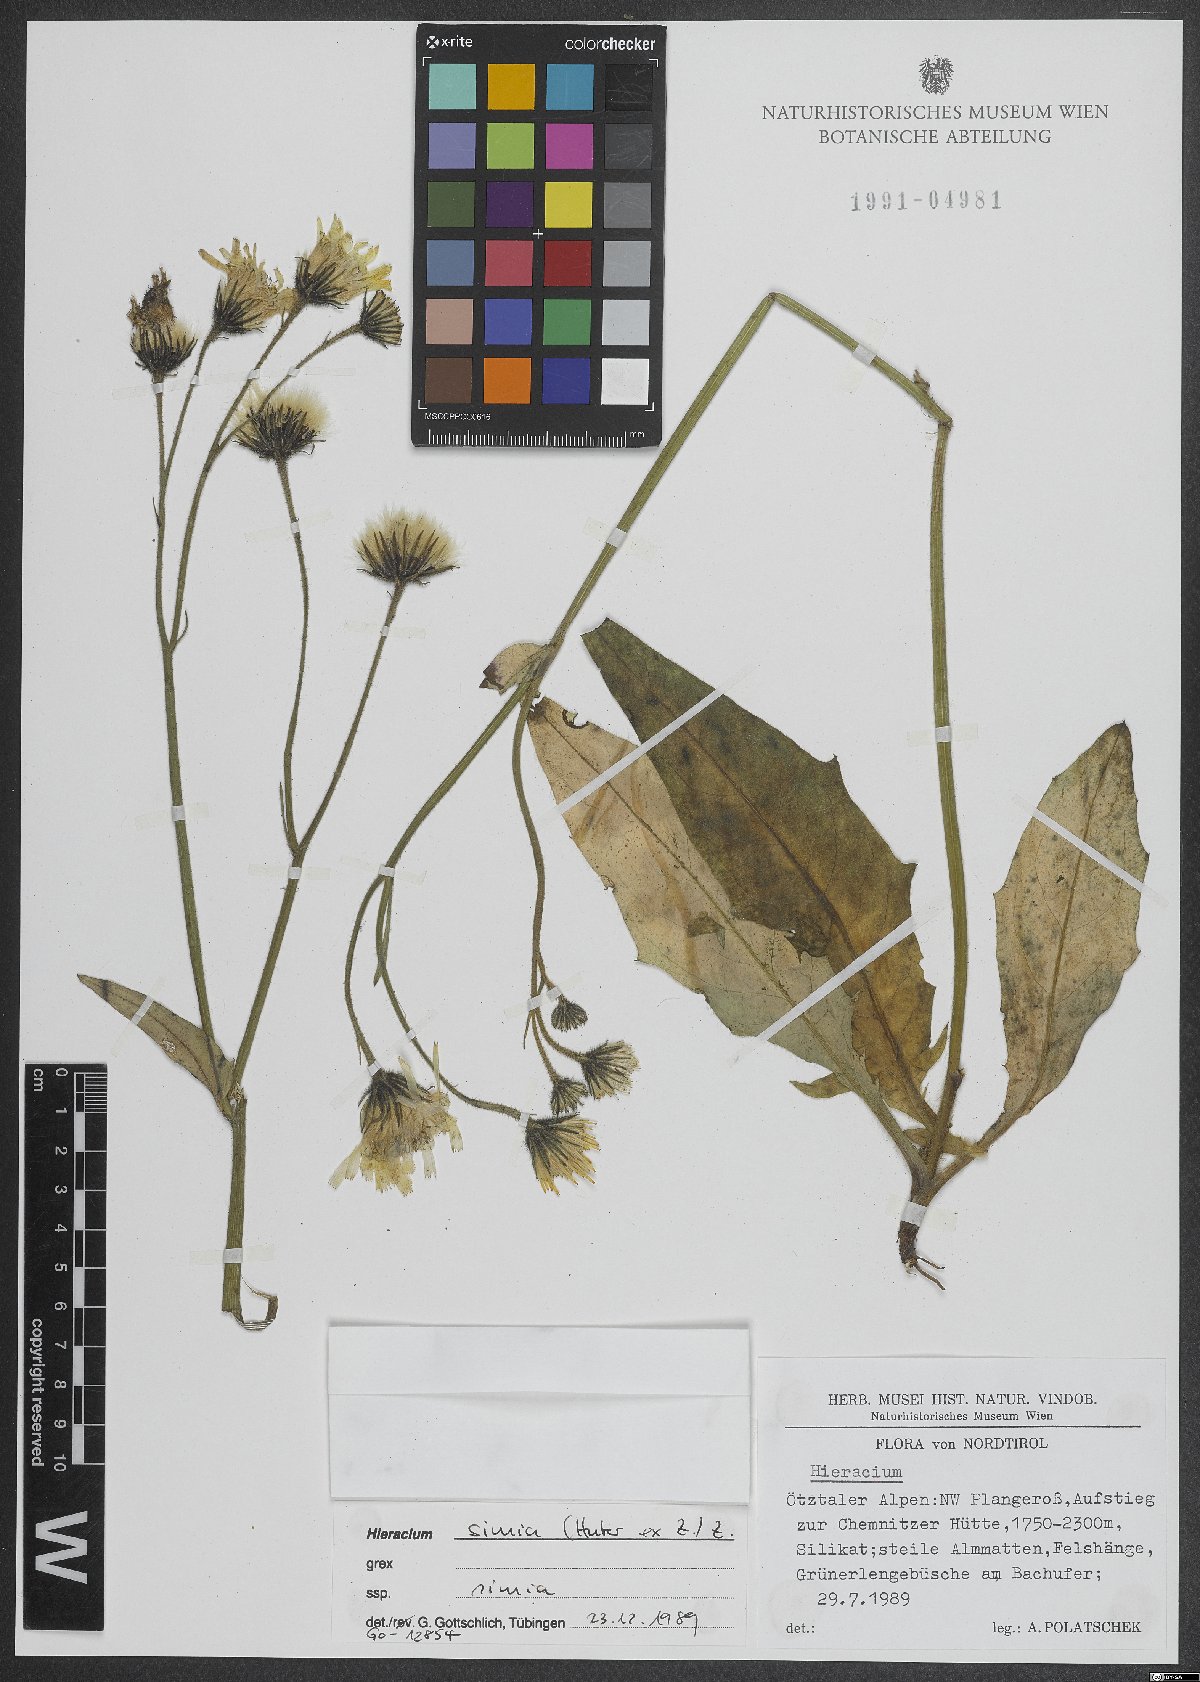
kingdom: Plantae
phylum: Tracheophyta
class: Magnoliopsida
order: Asterales
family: Asteraceae
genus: Hieracium
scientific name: Hieracium simia
